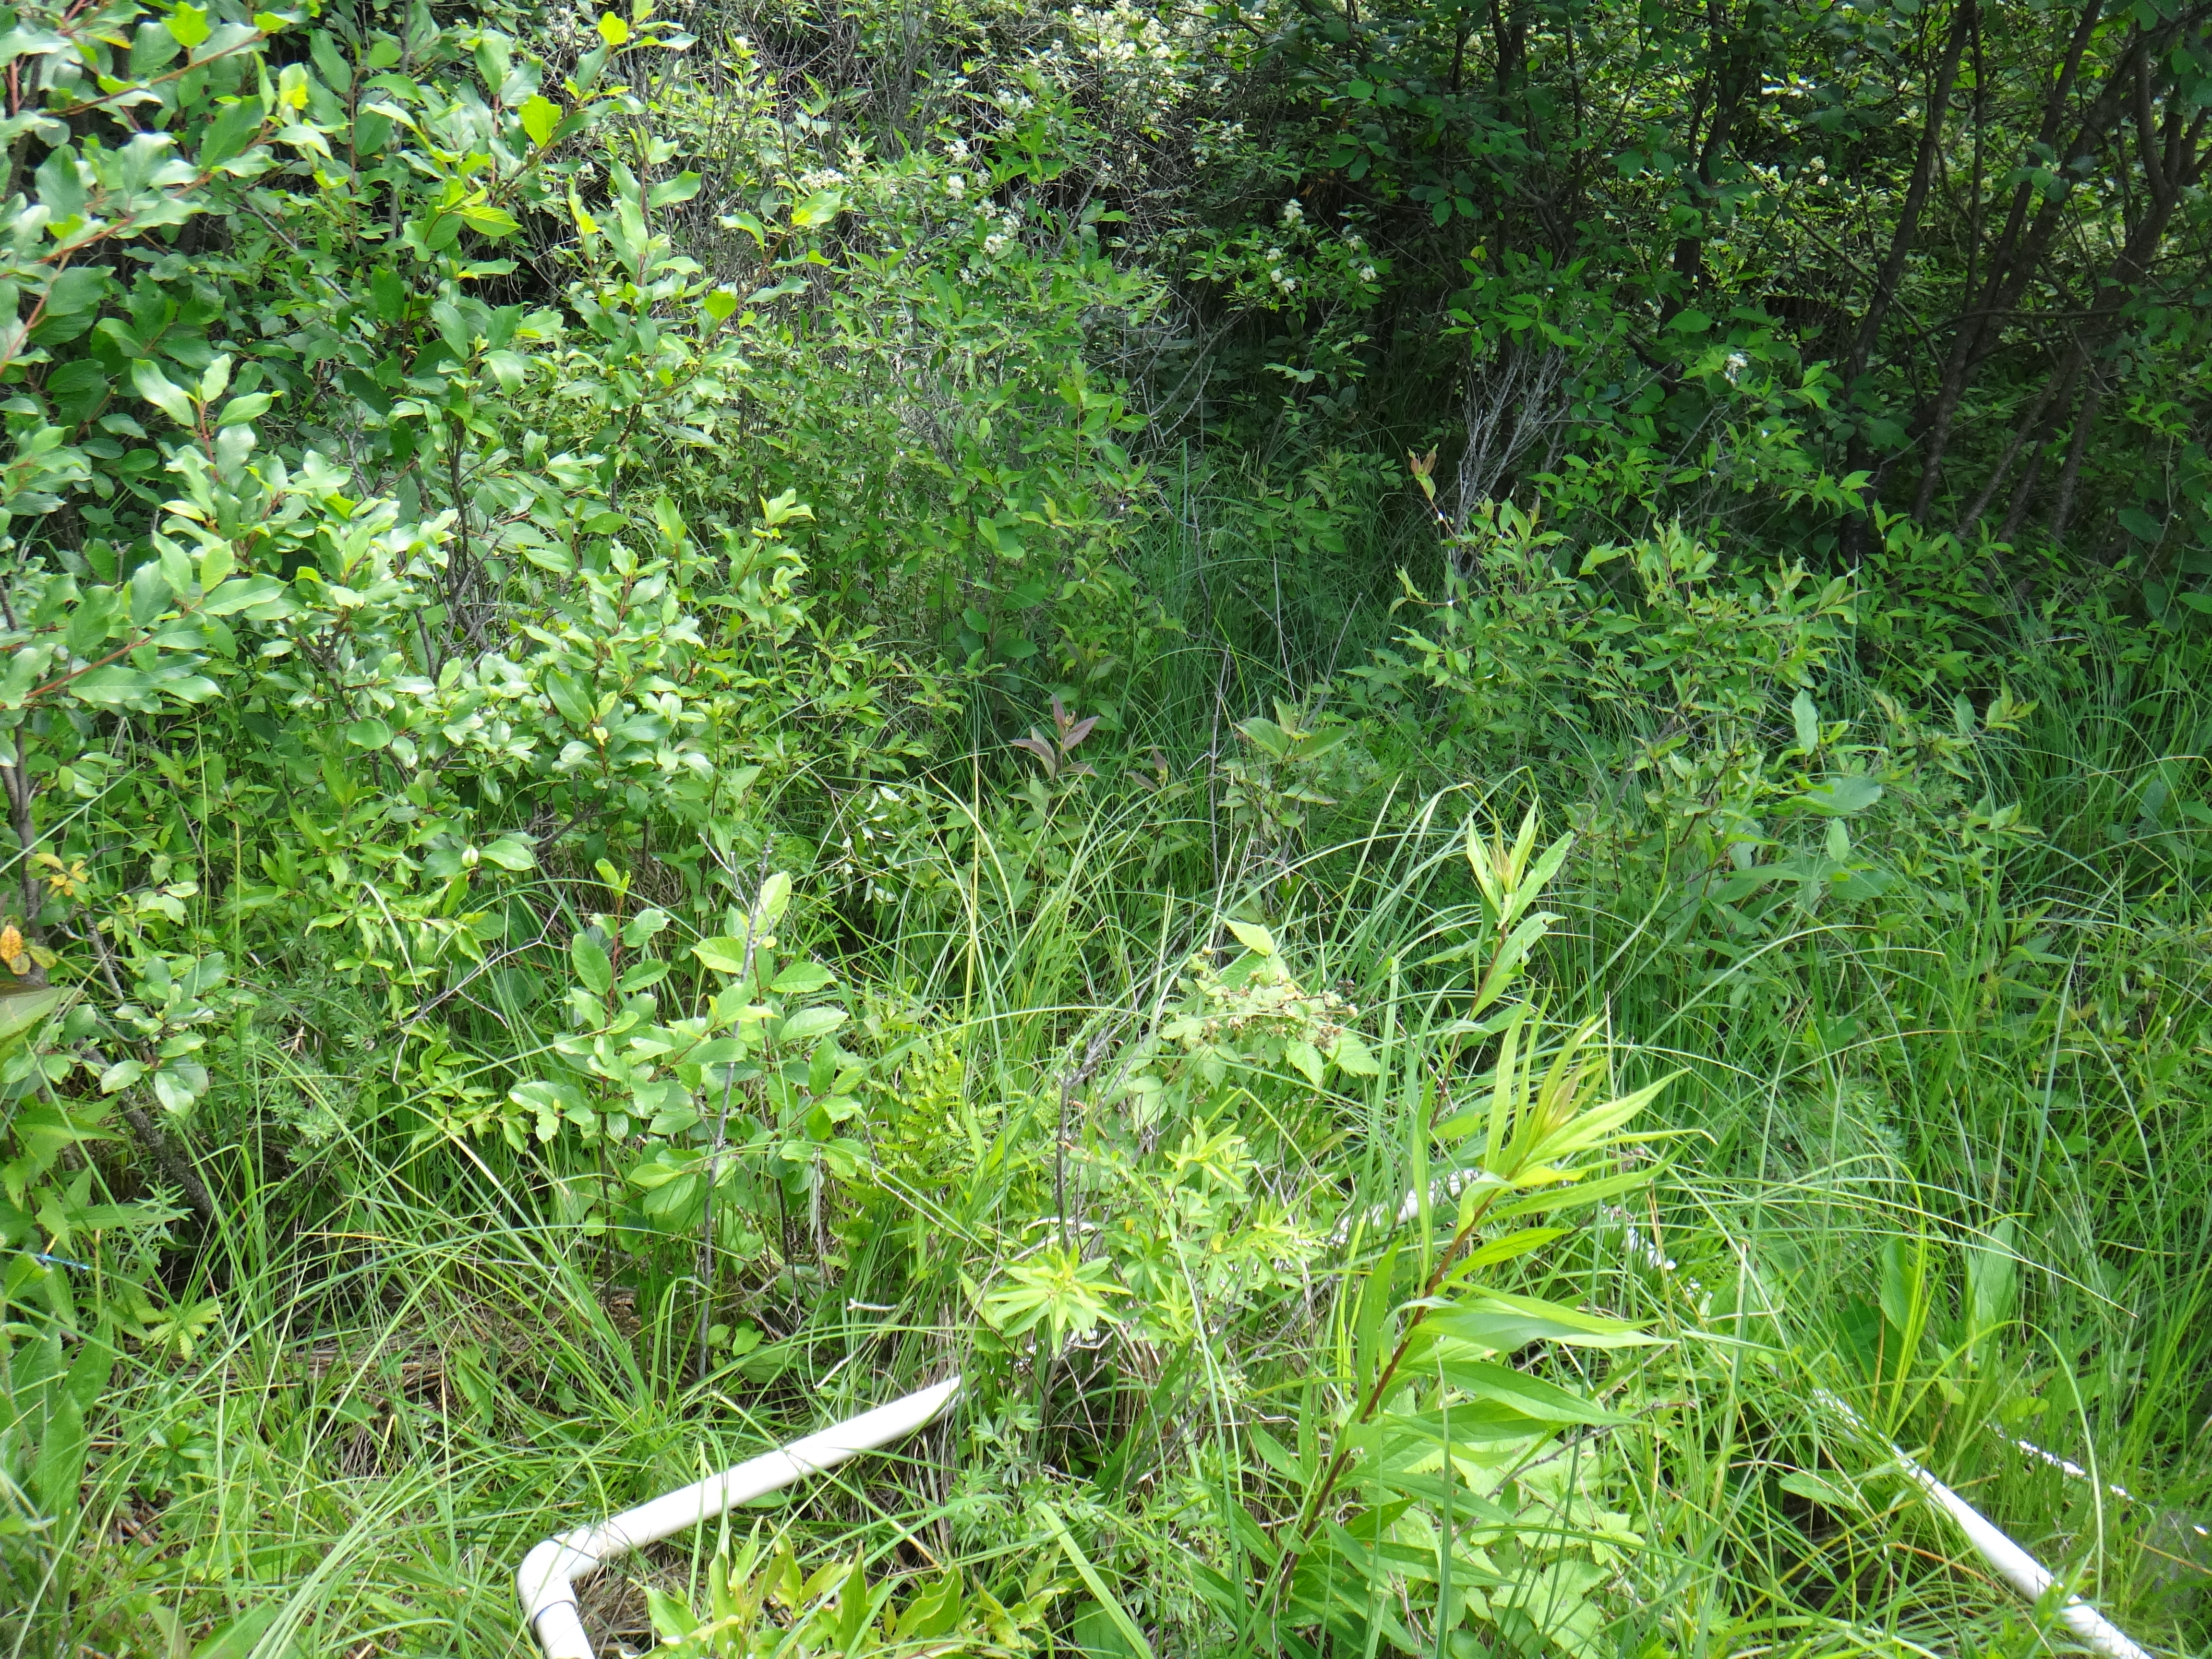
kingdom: Plantae
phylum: Tracheophyta
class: Magnoliopsida
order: Rosales
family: Rosaceae
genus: Rubus
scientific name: Rubus idaeus
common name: Raspberry
